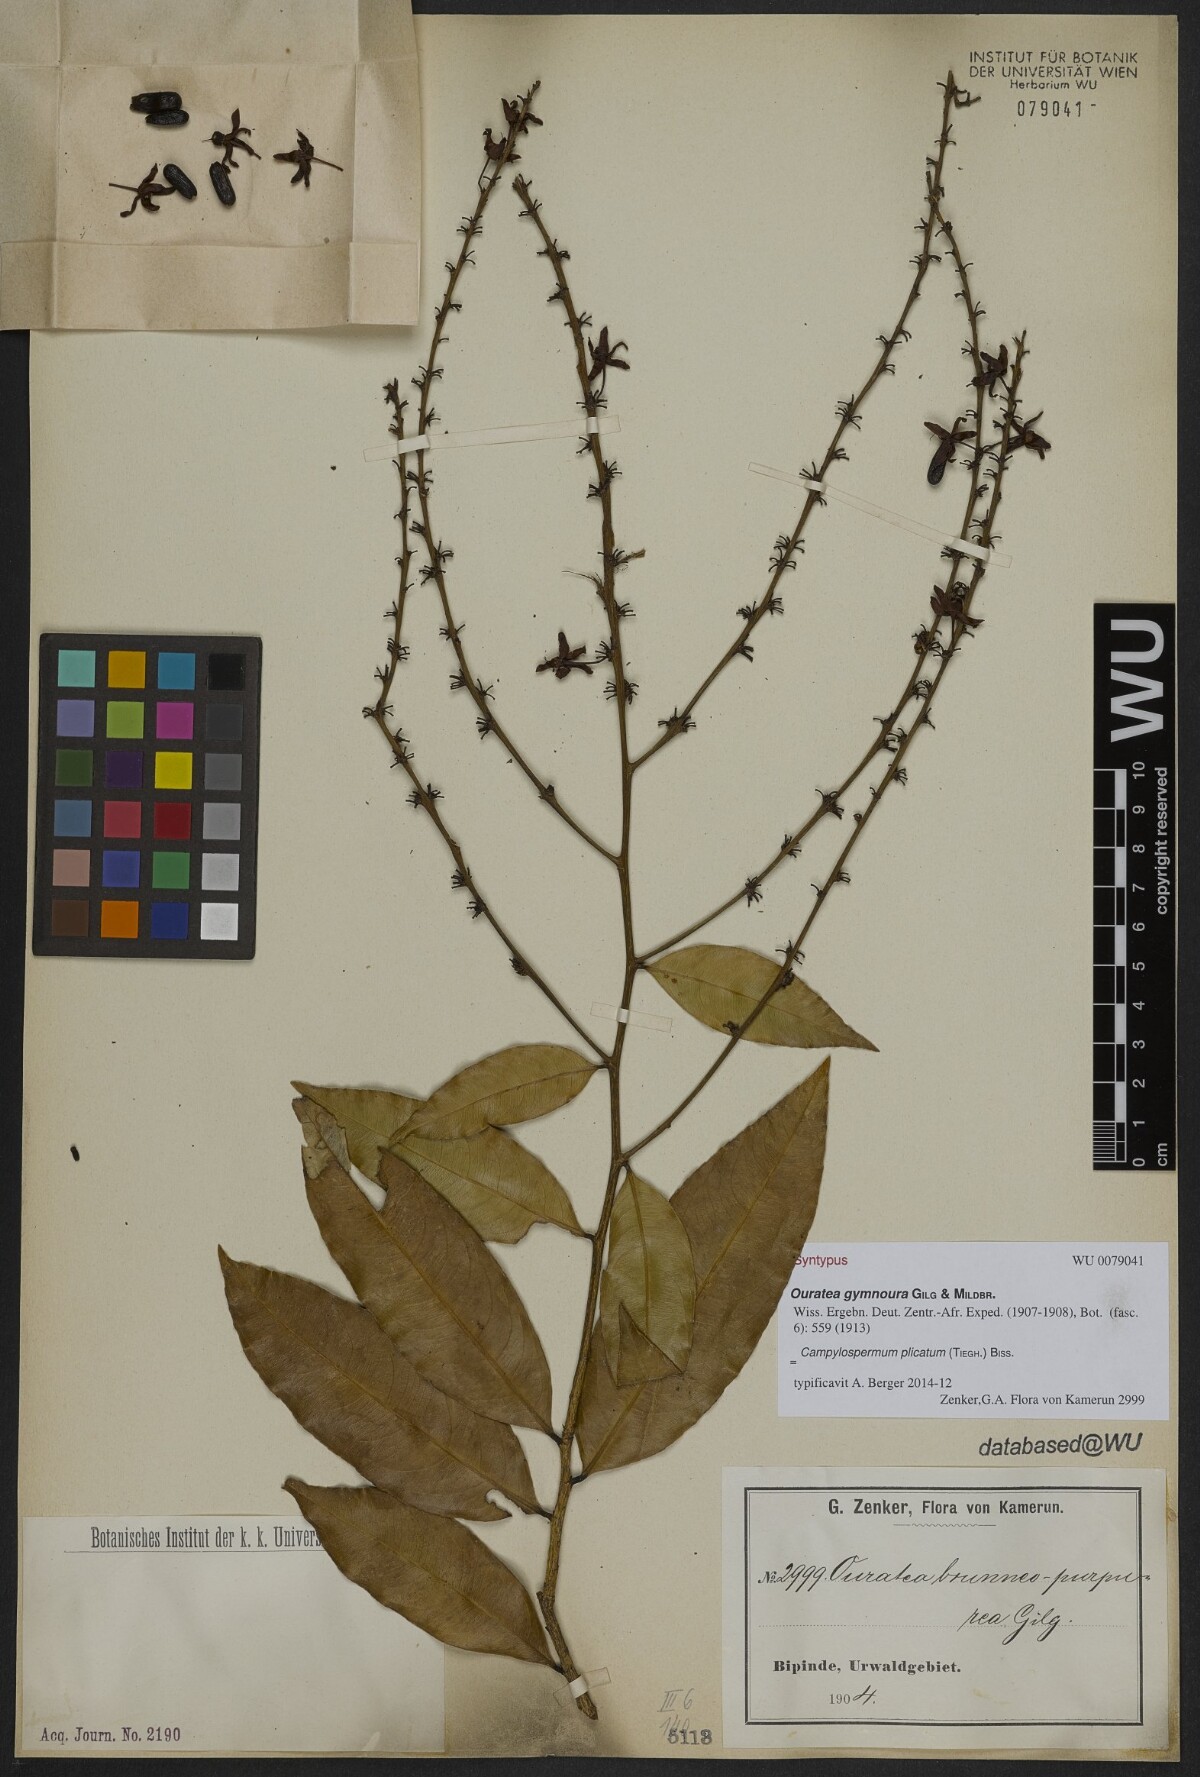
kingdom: Plantae
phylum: Tracheophyta
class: Magnoliopsida
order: Malpighiales
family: Ochnaceae
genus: Campylospermum
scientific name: Campylospermum strictum
